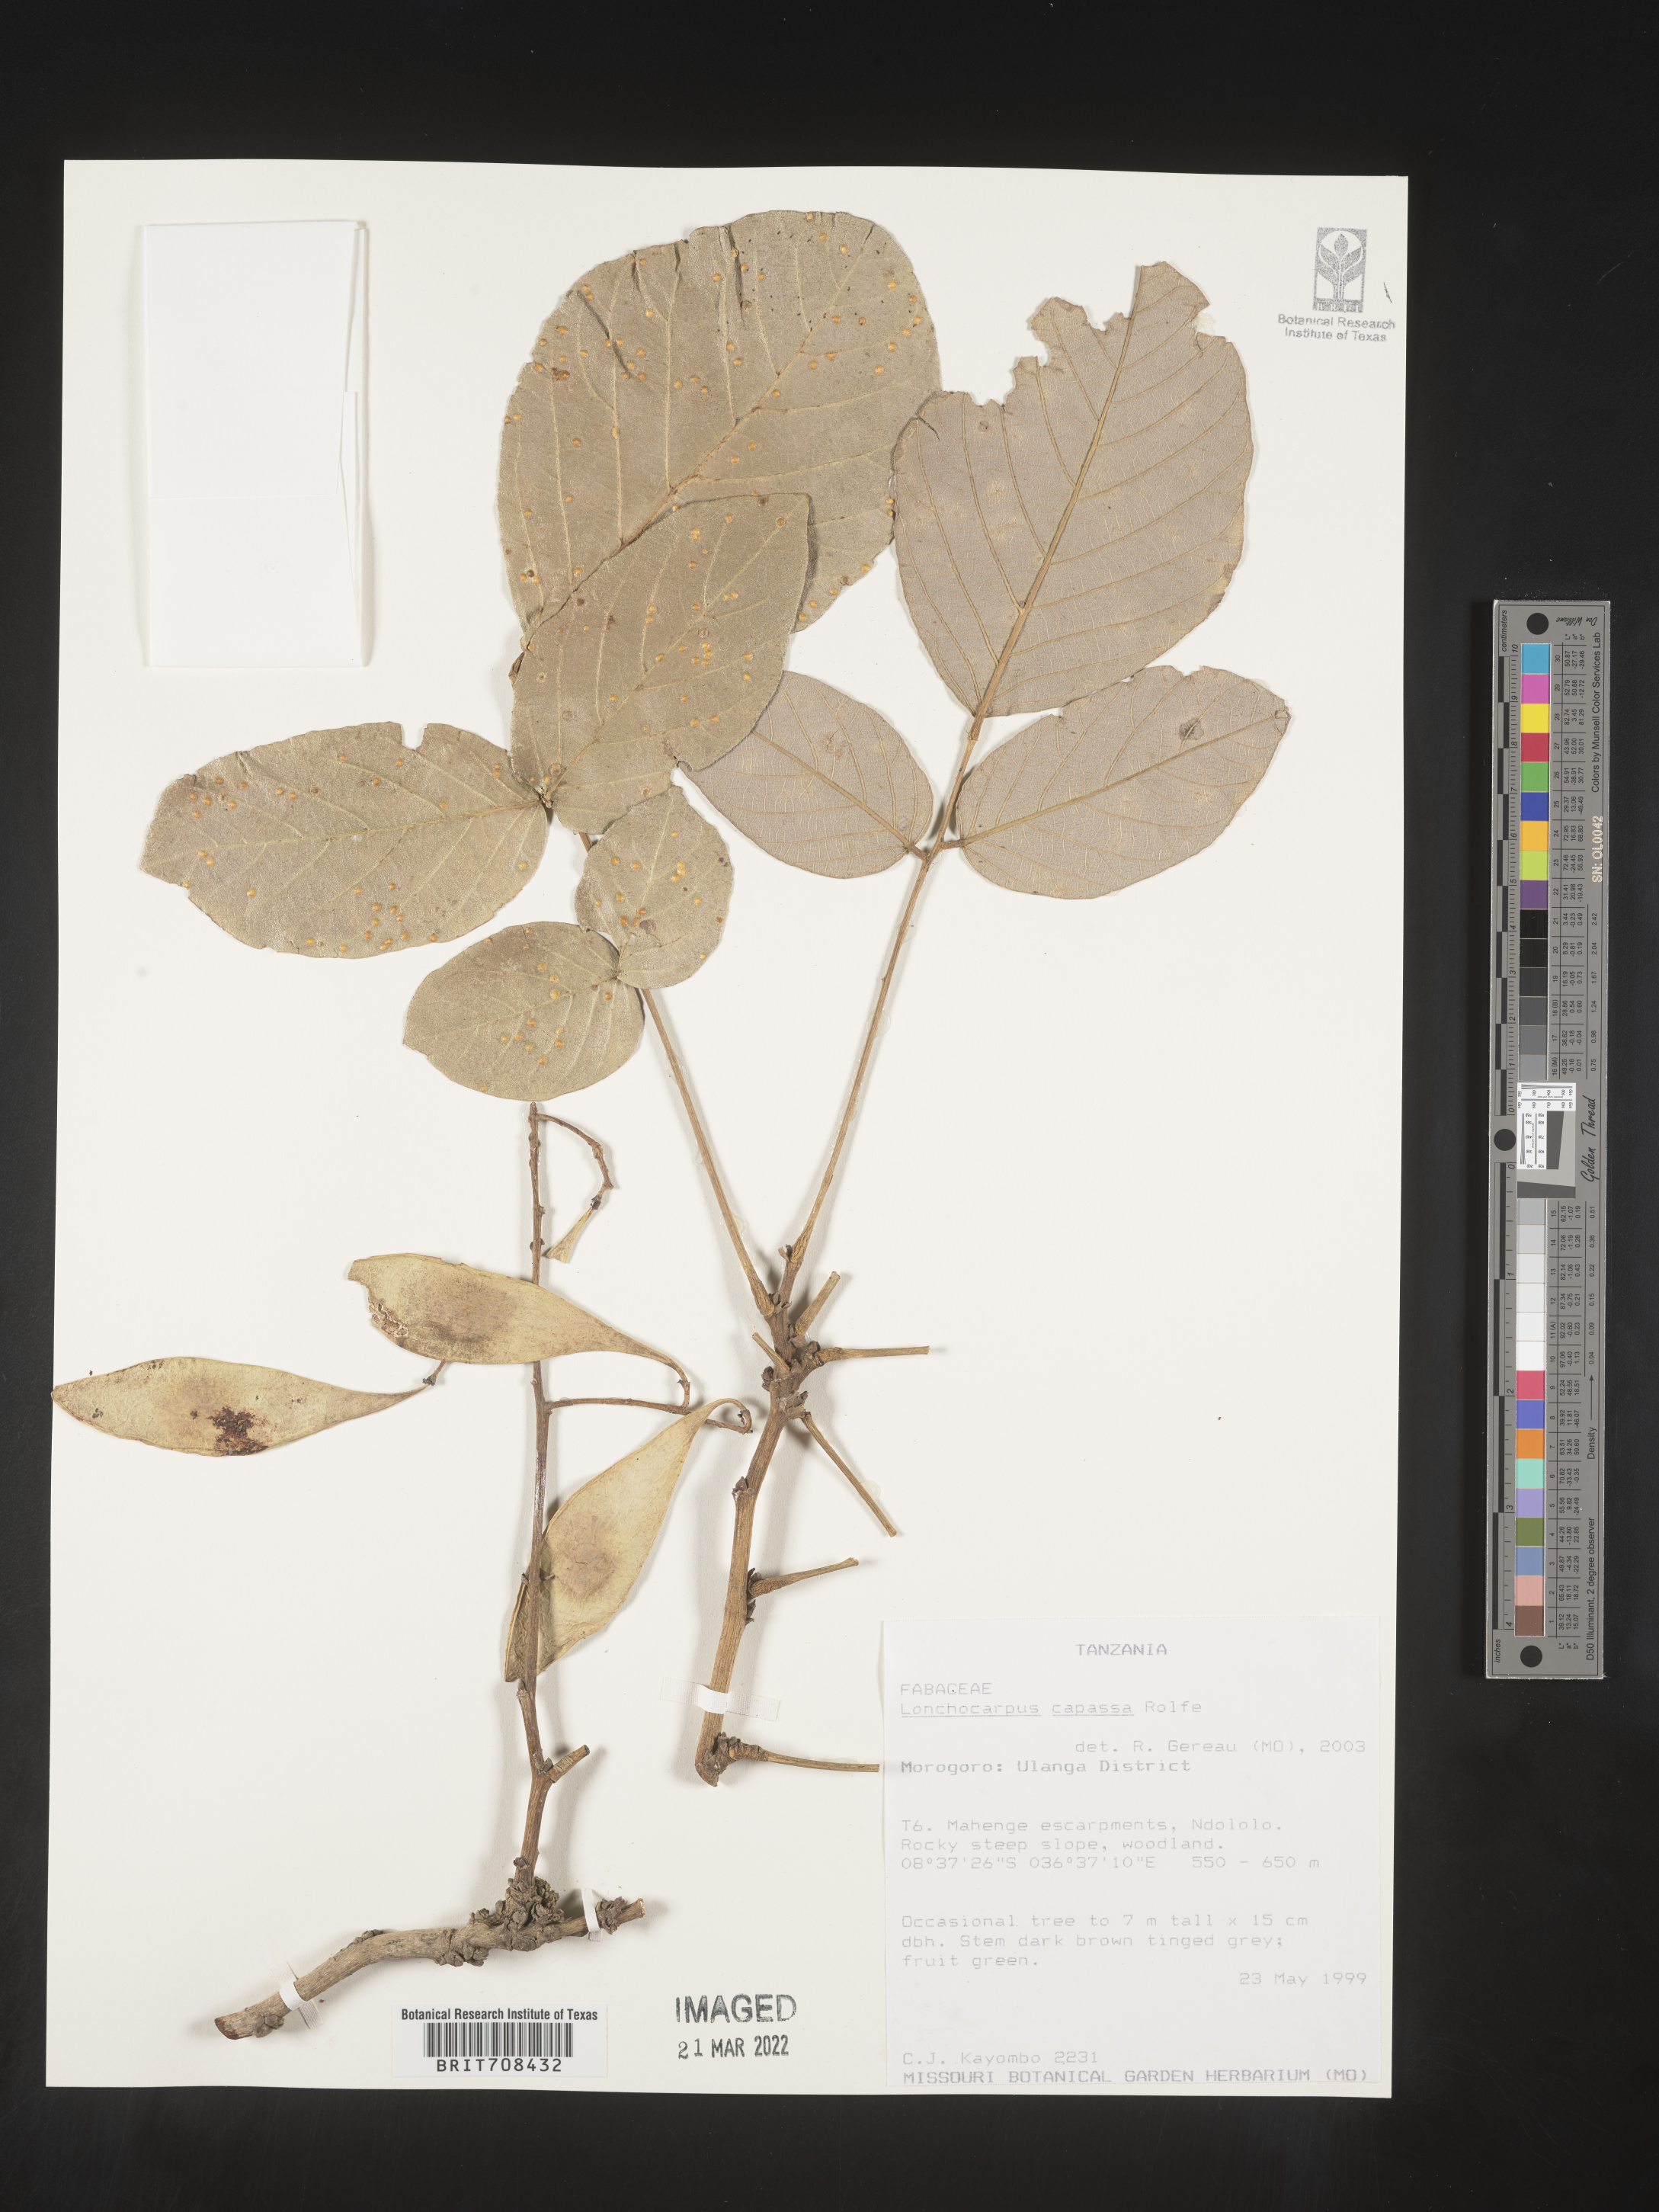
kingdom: Plantae
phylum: Tracheophyta
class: Magnoliopsida
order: Fabales
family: Fabaceae
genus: Lonchocarpus
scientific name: Lonchocarpus
